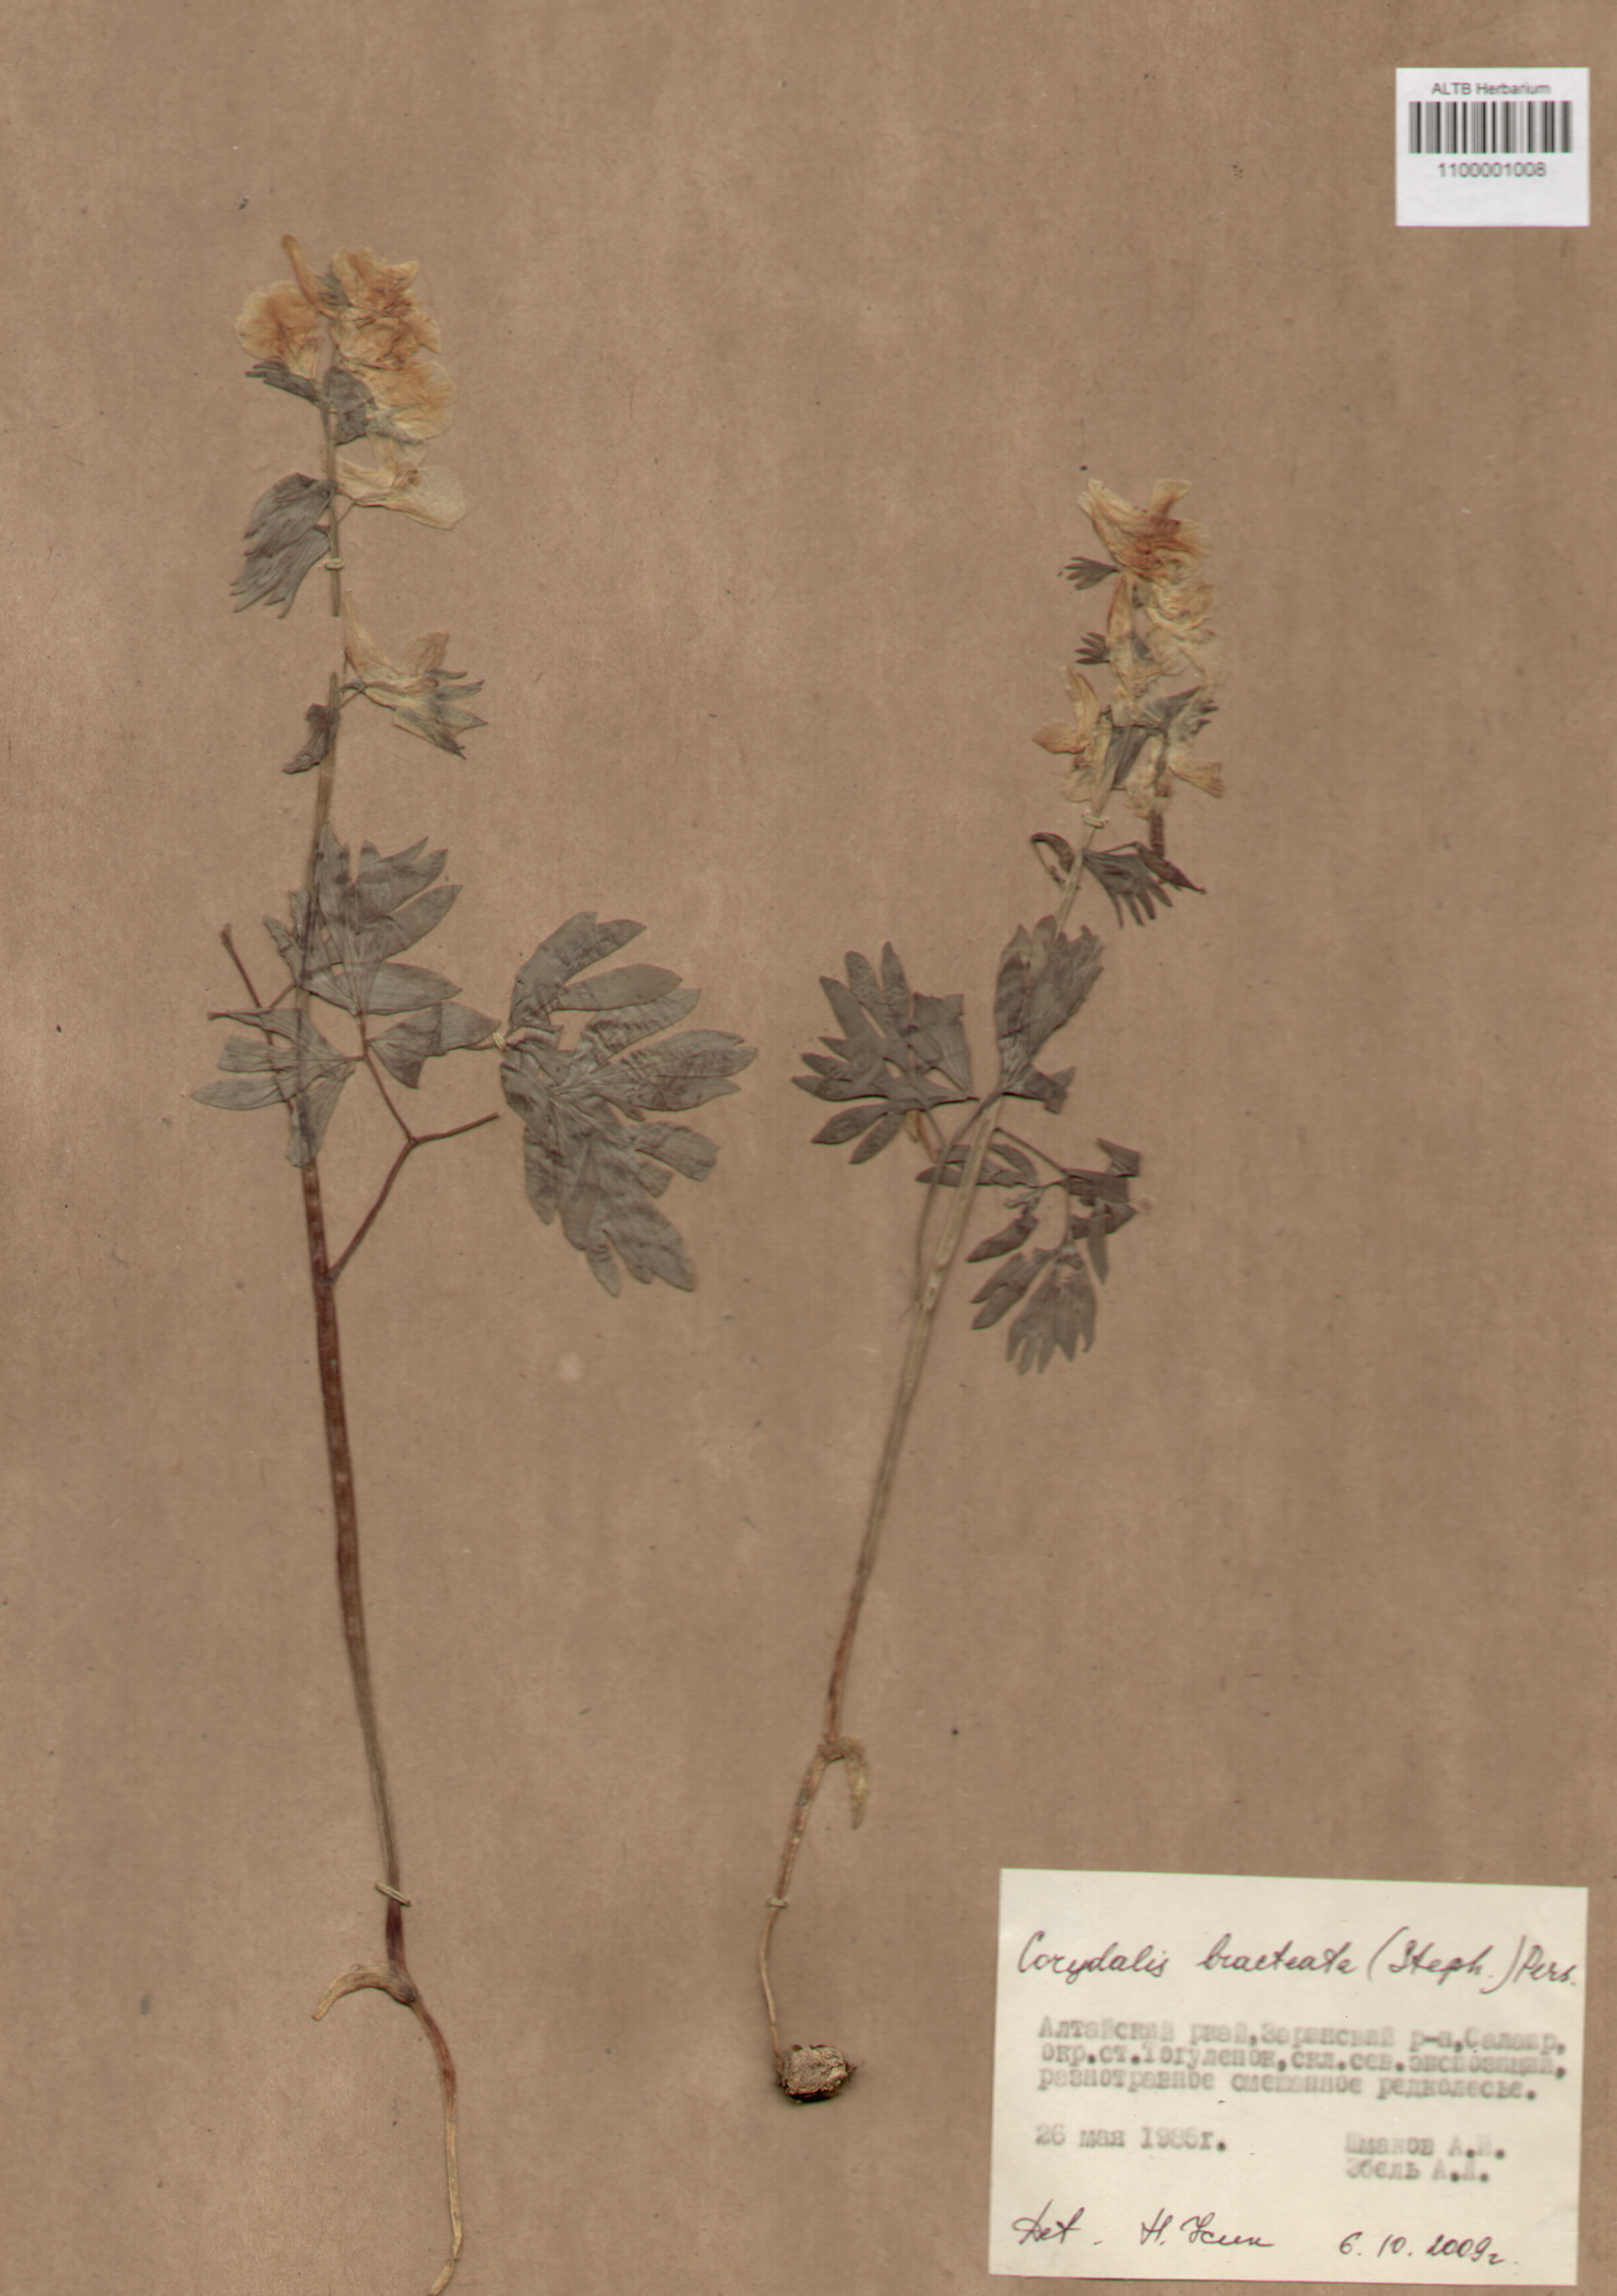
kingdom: Plantae
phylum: Tracheophyta
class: Magnoliopsida
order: Ranunculales
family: Papaveraceae
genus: Corydalis
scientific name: Corydalis bracteata
